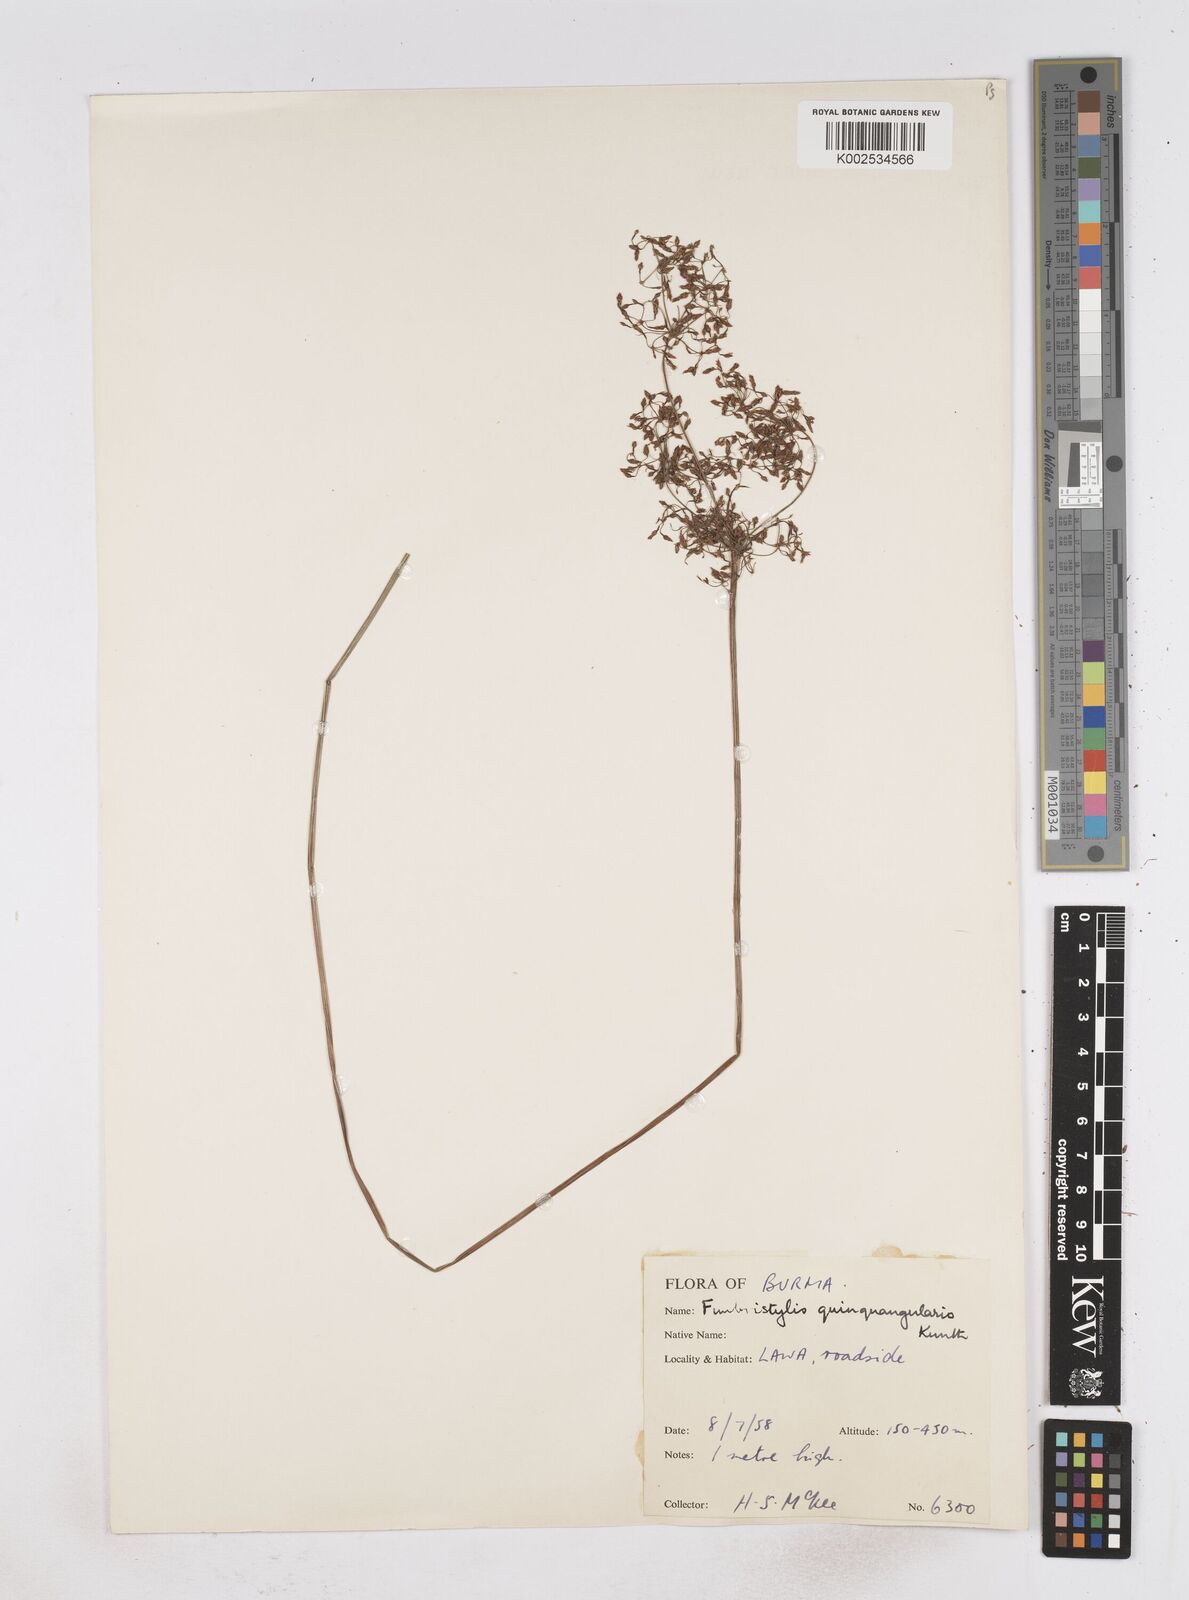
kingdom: Plantae
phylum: Tracheophyta
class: Liliopsida
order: Poales
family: Cyperaceae
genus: Fimbristylis
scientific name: Fimbristylis quinquangularis
